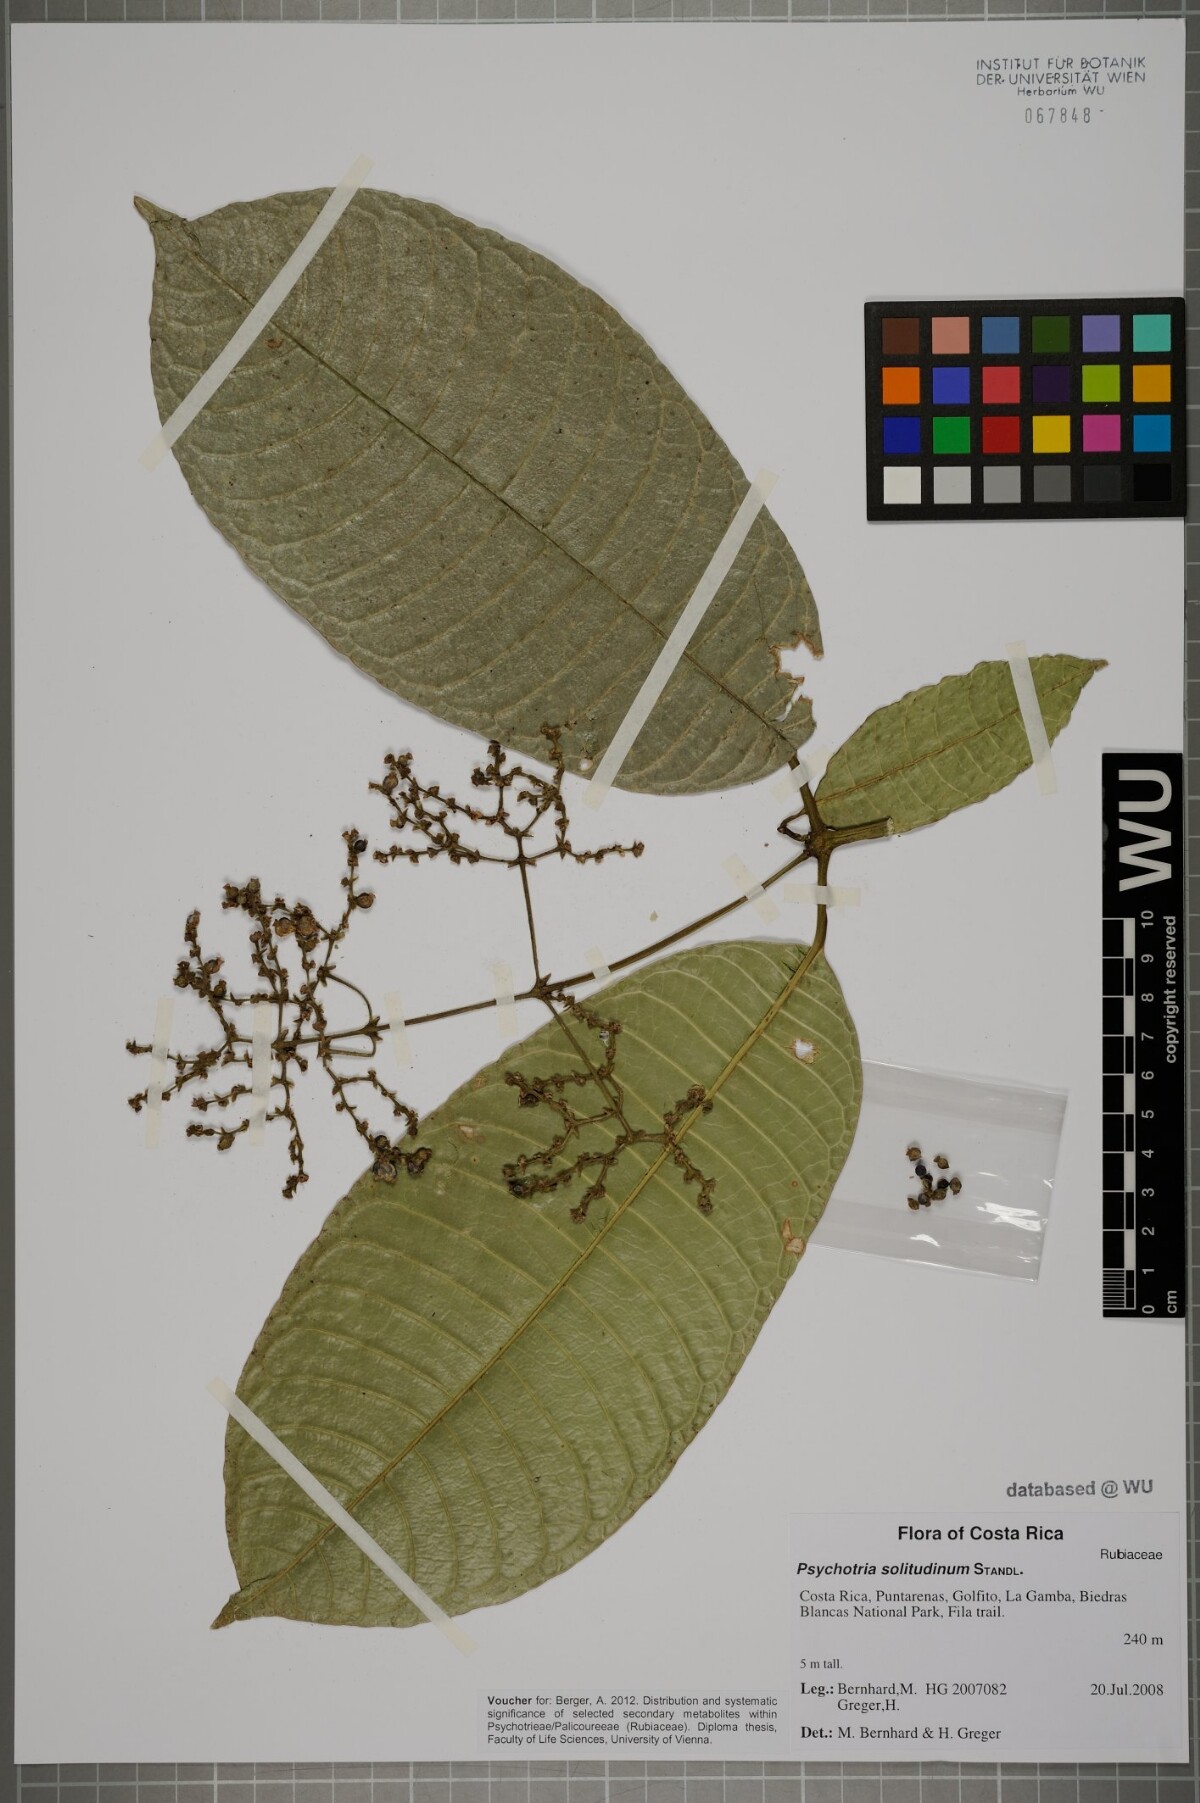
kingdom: Plantae
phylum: Tracheophyta
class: Magnoliopsida
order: Gentianales
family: Rubiaceae
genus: Palicourea
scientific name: Palicourea solitudinum
